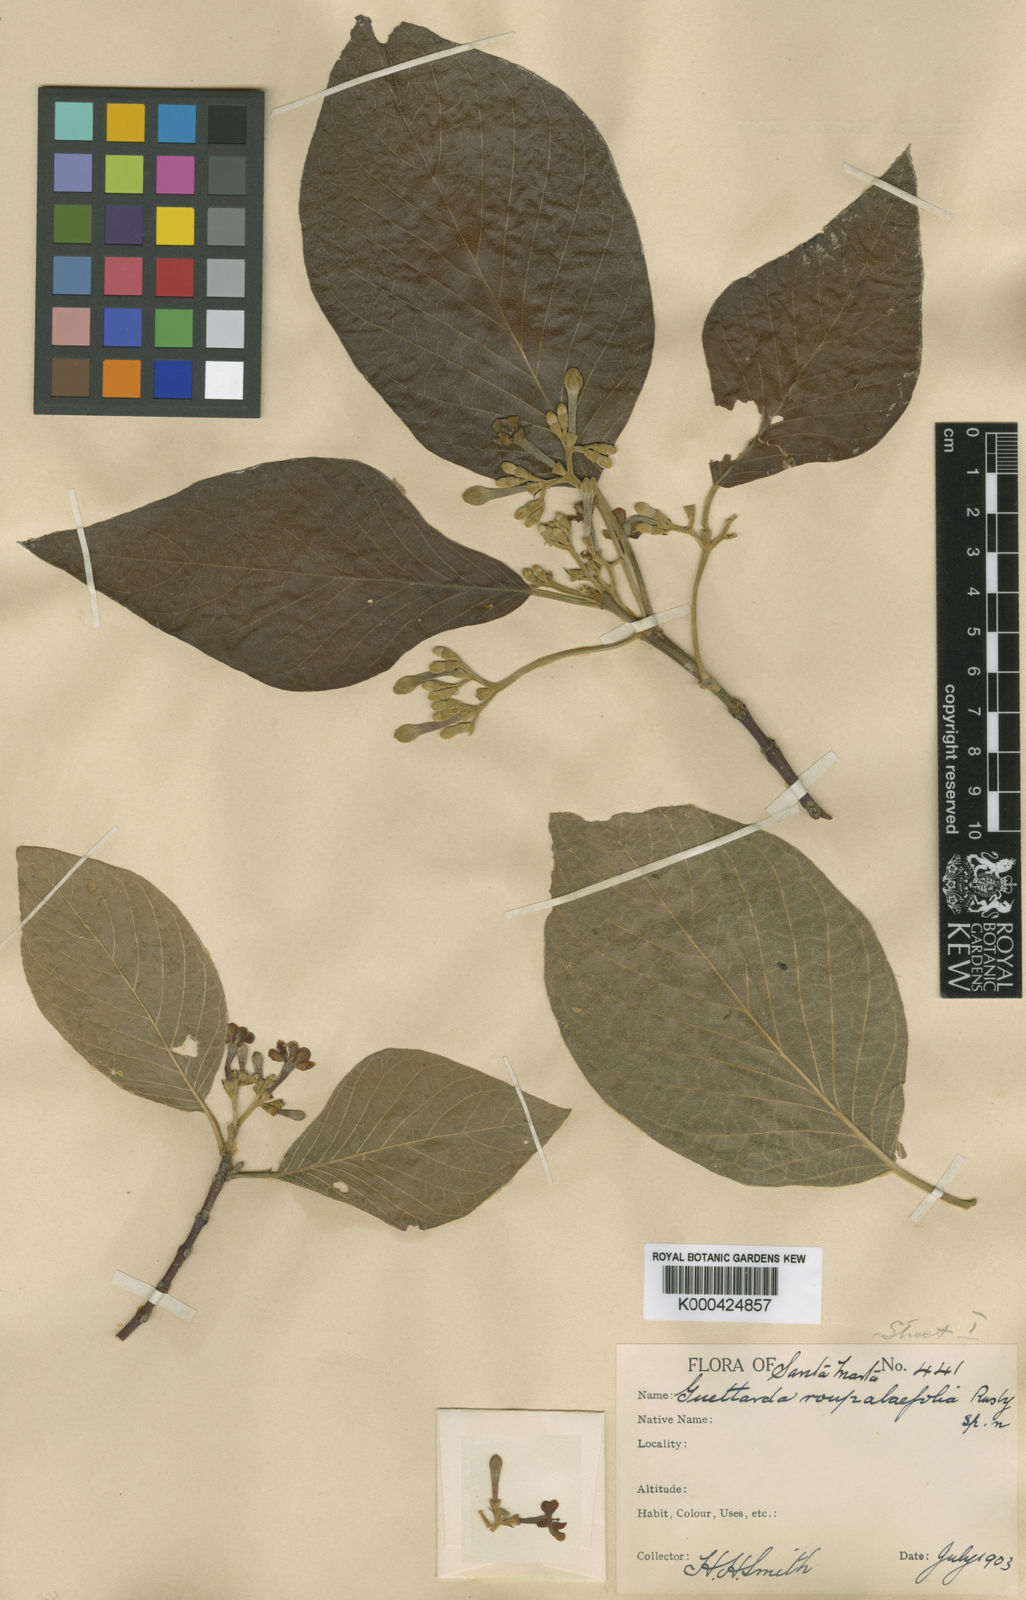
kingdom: Plantae
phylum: Tracheophyta
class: Magnoliopsida
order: Gentianales
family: Rubiaceae
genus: Guettarda
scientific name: Guettarda roupaliifolia
